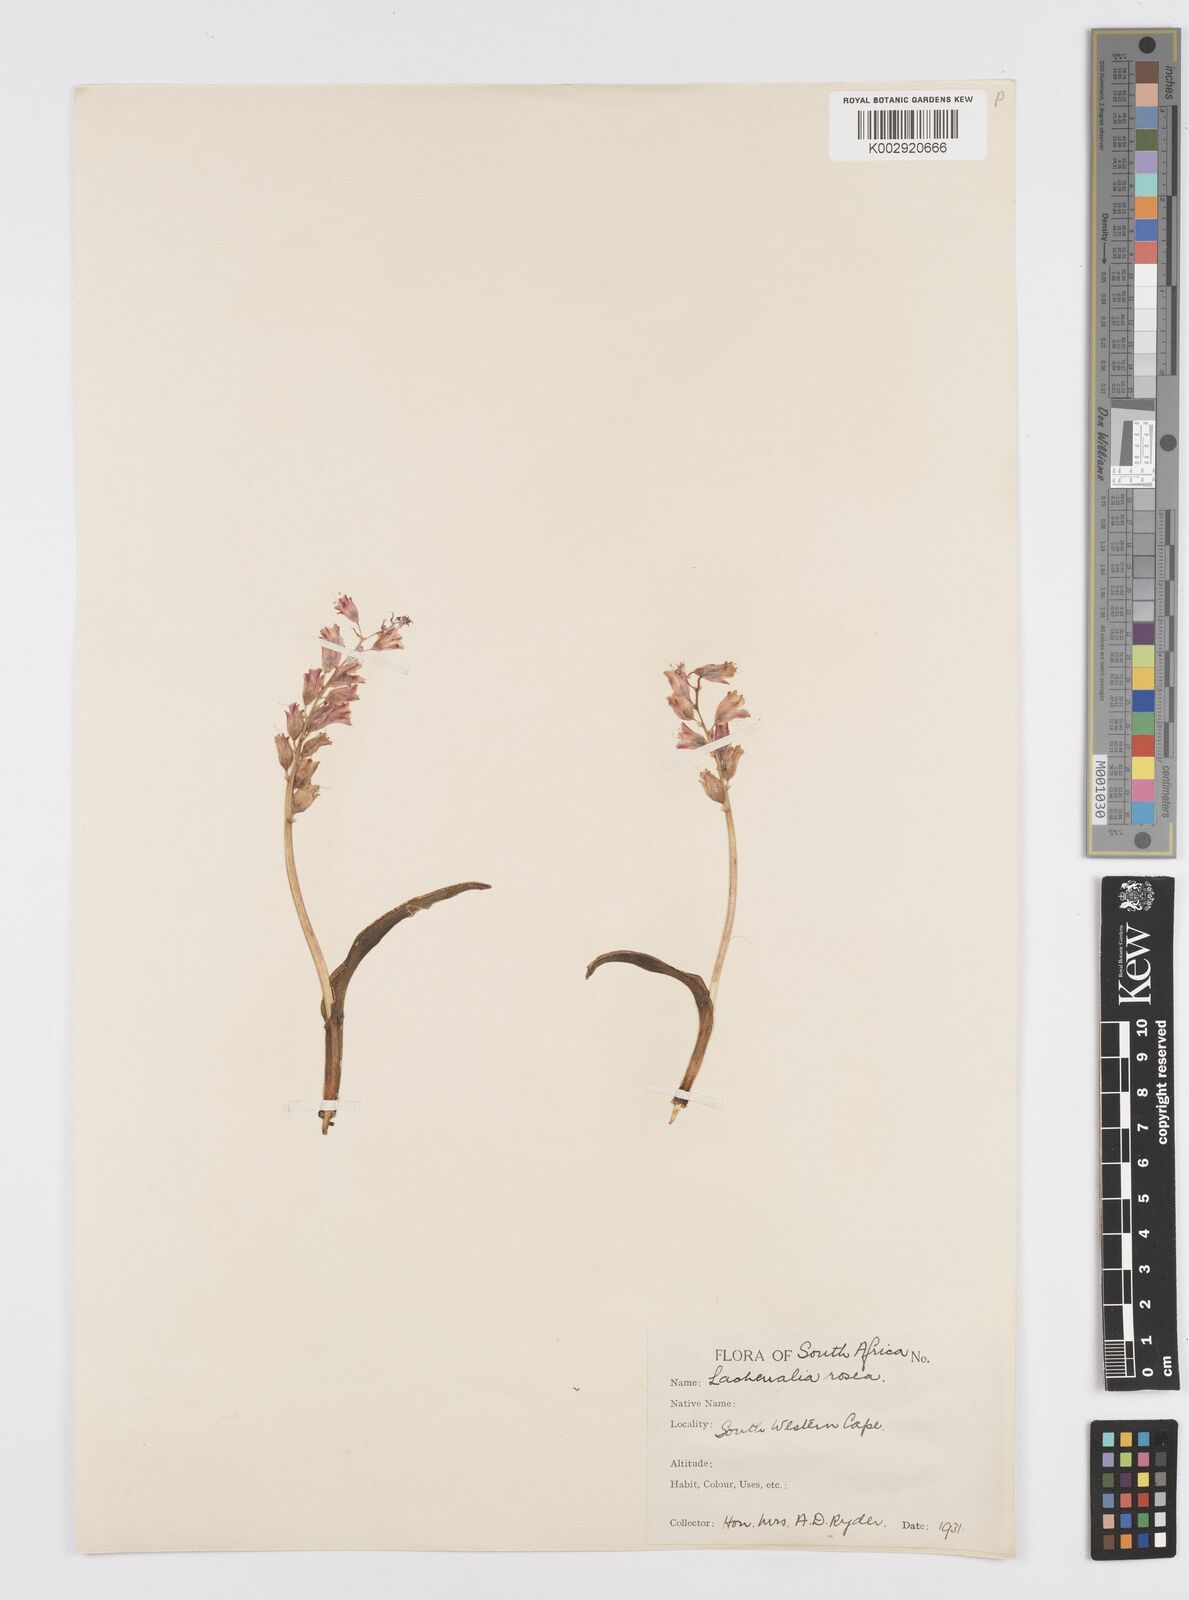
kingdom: Plantae
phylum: Tracheophyta
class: Liliopsida
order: Asparagales
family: Asparagaceae
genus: Lachenalia
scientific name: Lachenalia rosea
